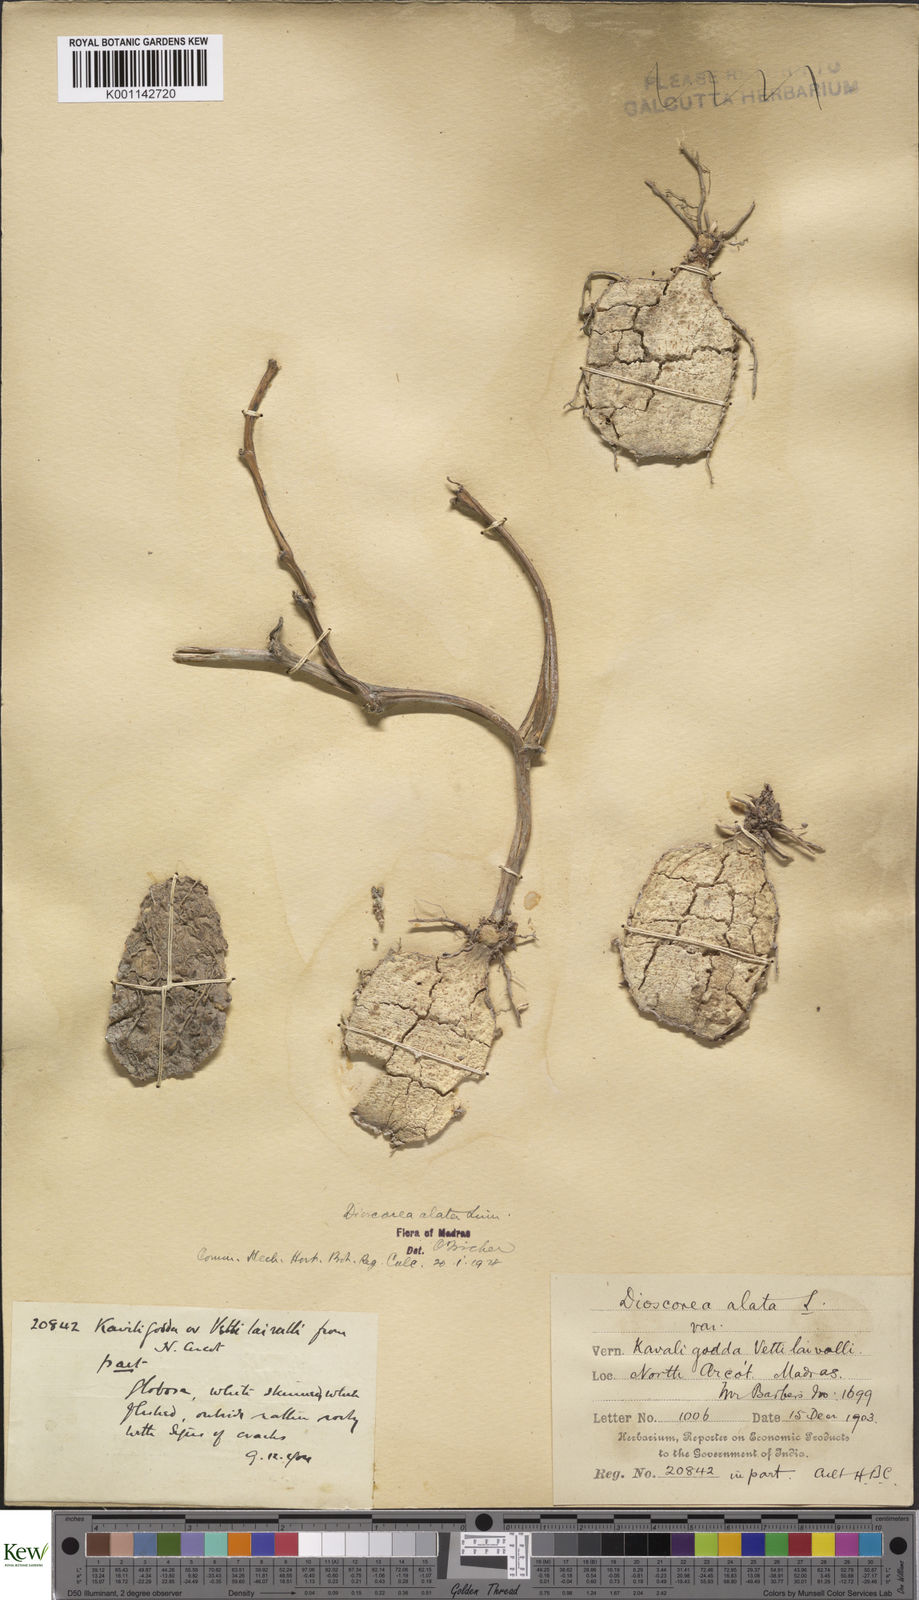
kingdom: Plantae
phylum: Tracheophyta
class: Liliopsida
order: Dioscoreales
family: Dioscoreaceae
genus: Dioscorea
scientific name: Dioscorea alata
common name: Water yam
